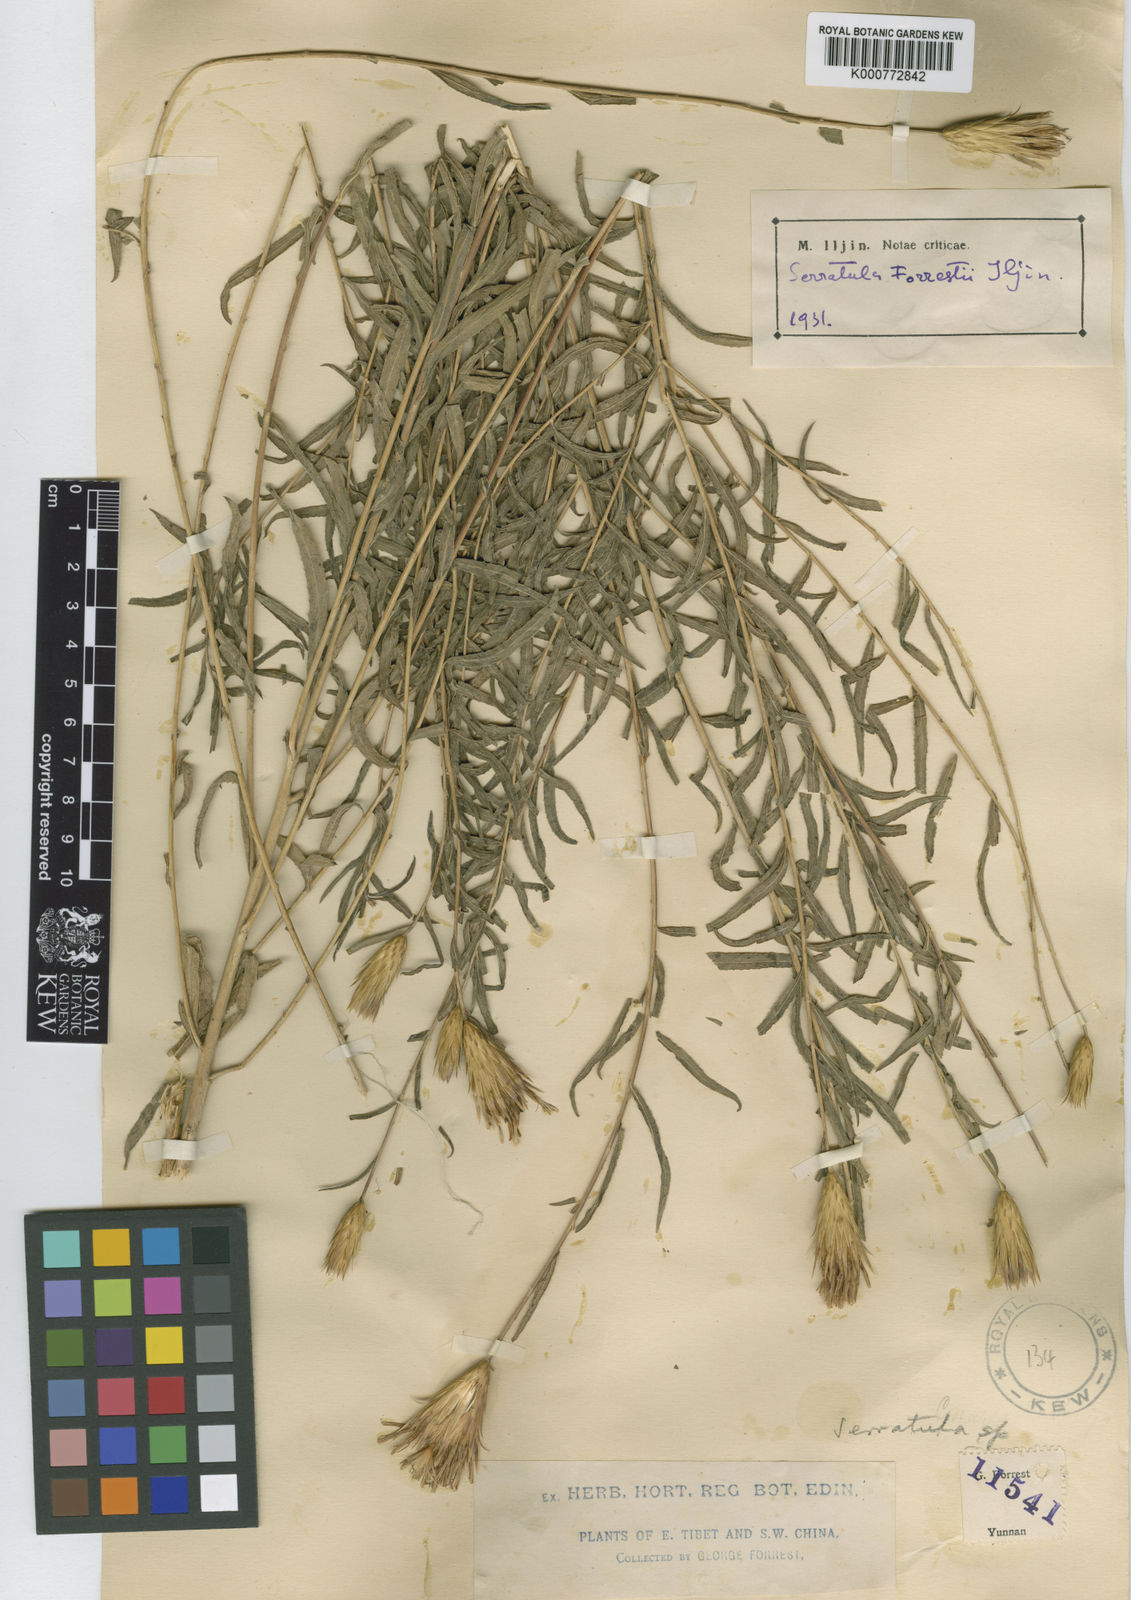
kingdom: Plantae
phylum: Tracheophyta
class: Magnoliopsida
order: Asterales
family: Asteraceae
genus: Archiserratula
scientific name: Archiserratula forrestii
